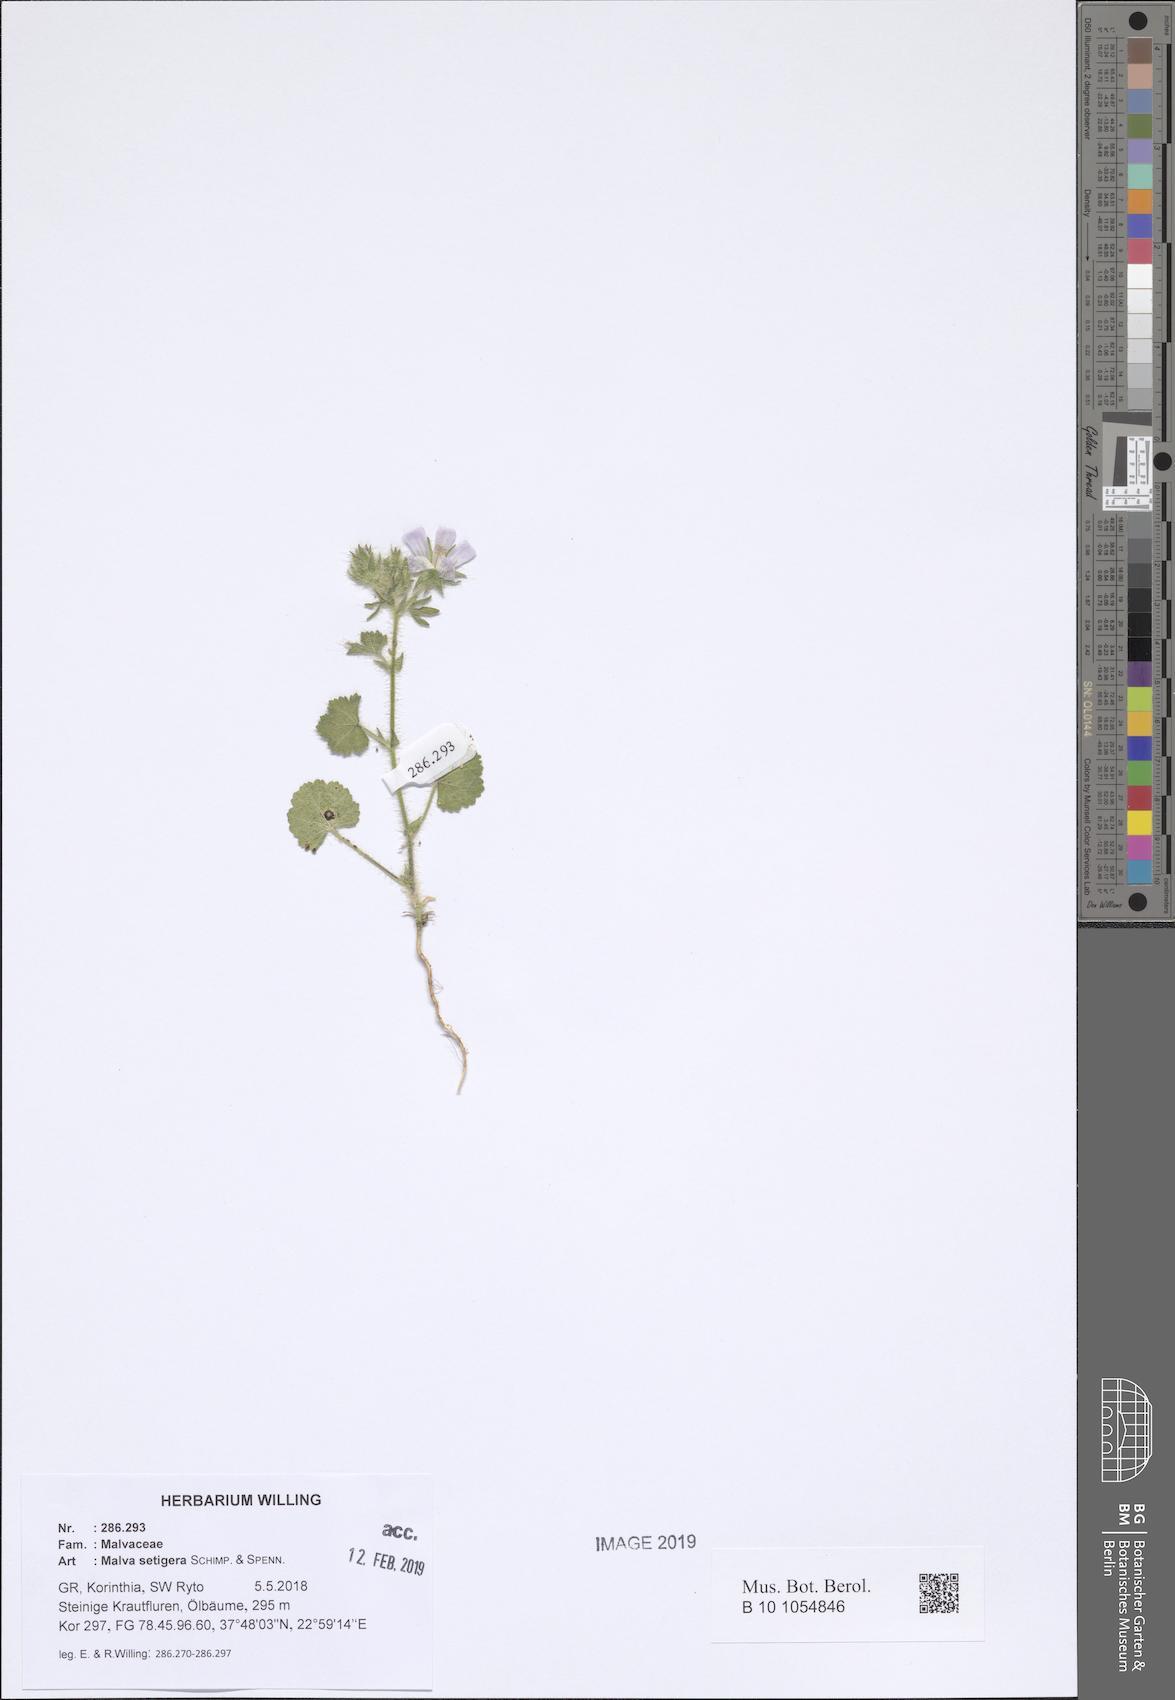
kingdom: Plantae
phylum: Tracheophyta
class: Magnoliopsida
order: Malvales
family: Malvaceae
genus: Althaea
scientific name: Althaea hirsuta
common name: Rough marsh-mallow
